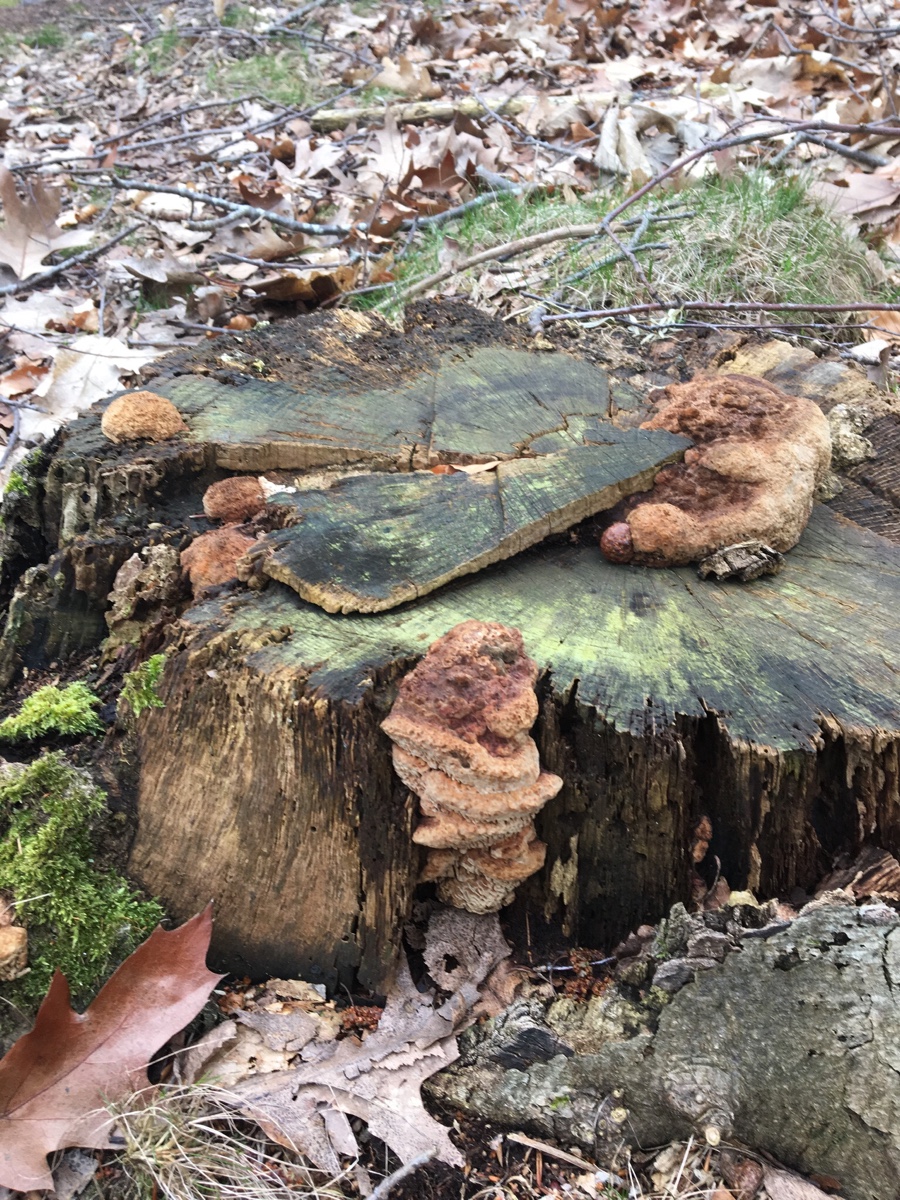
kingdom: Fungi
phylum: Basidiomycota
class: Agaricomycetes
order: Polyporales
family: Fomitopsidaceae
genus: Daedalea
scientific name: Daedalea quercina
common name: ege-labyrintsvamp
